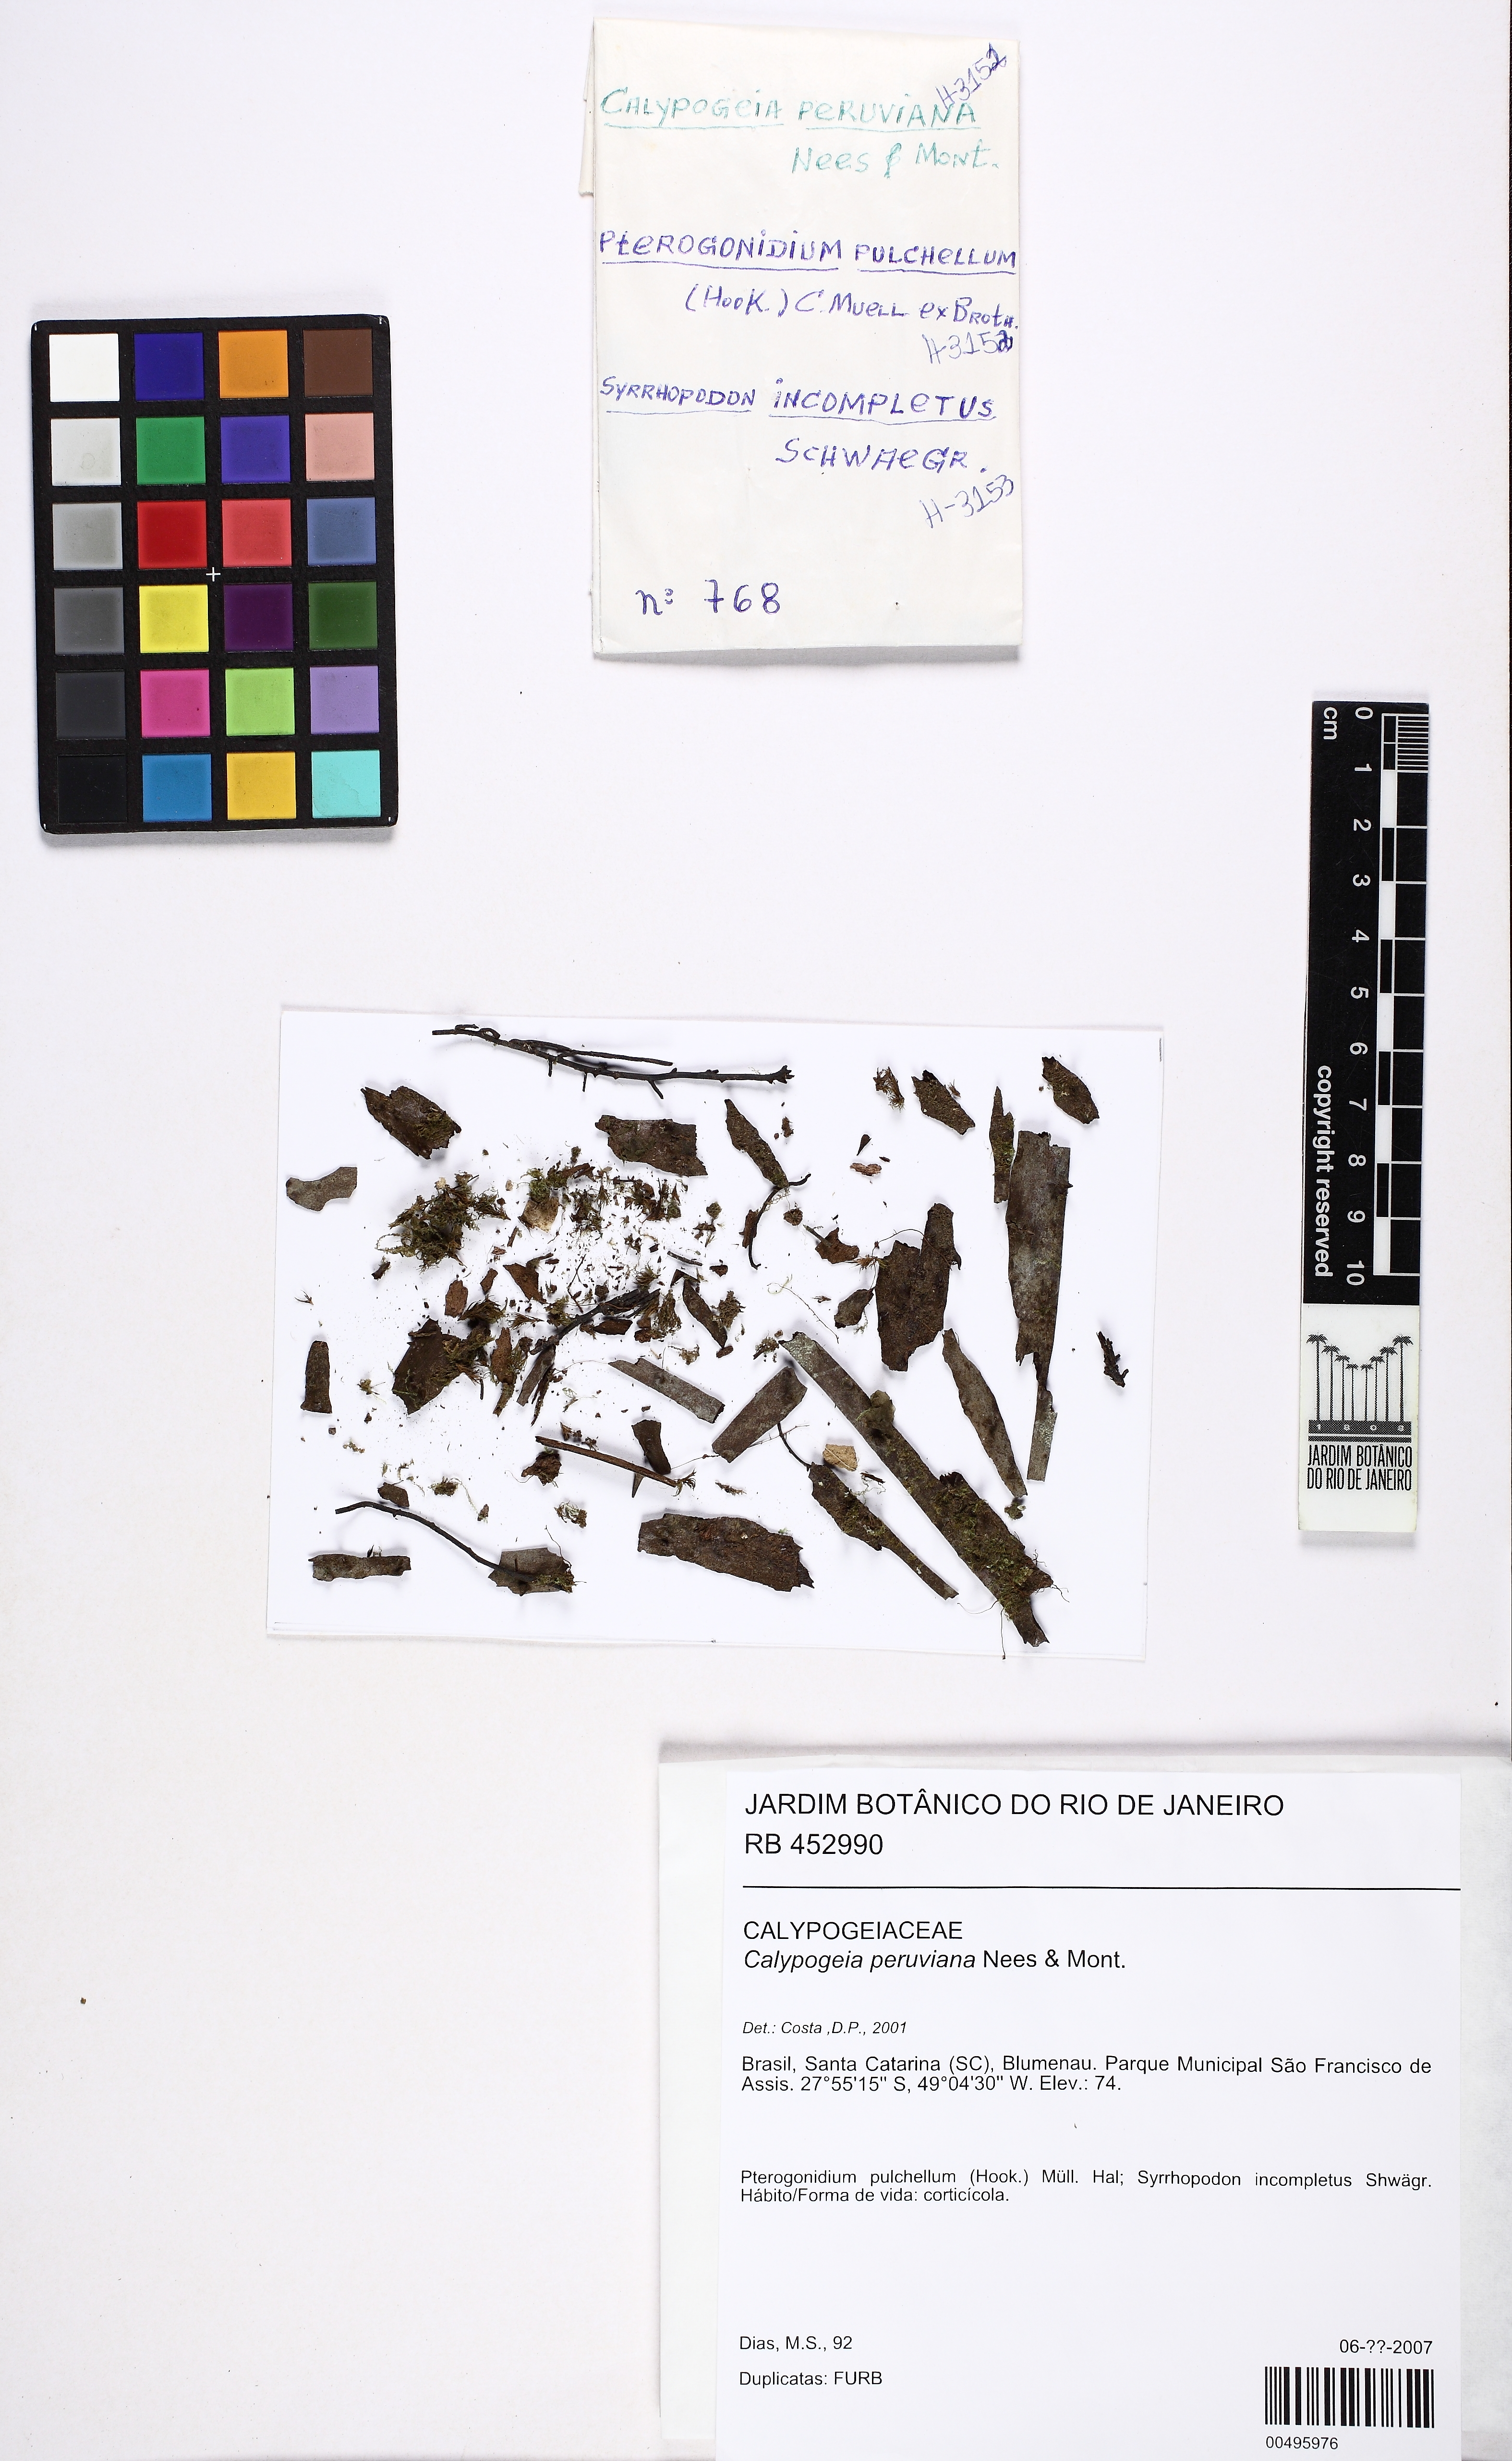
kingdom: Plantae
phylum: Marchantiophyta
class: Jungermanniopsida
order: Jungermanniales
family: Calypogeiaceae
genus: Calypogeia
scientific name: Calypogeia peruviana
